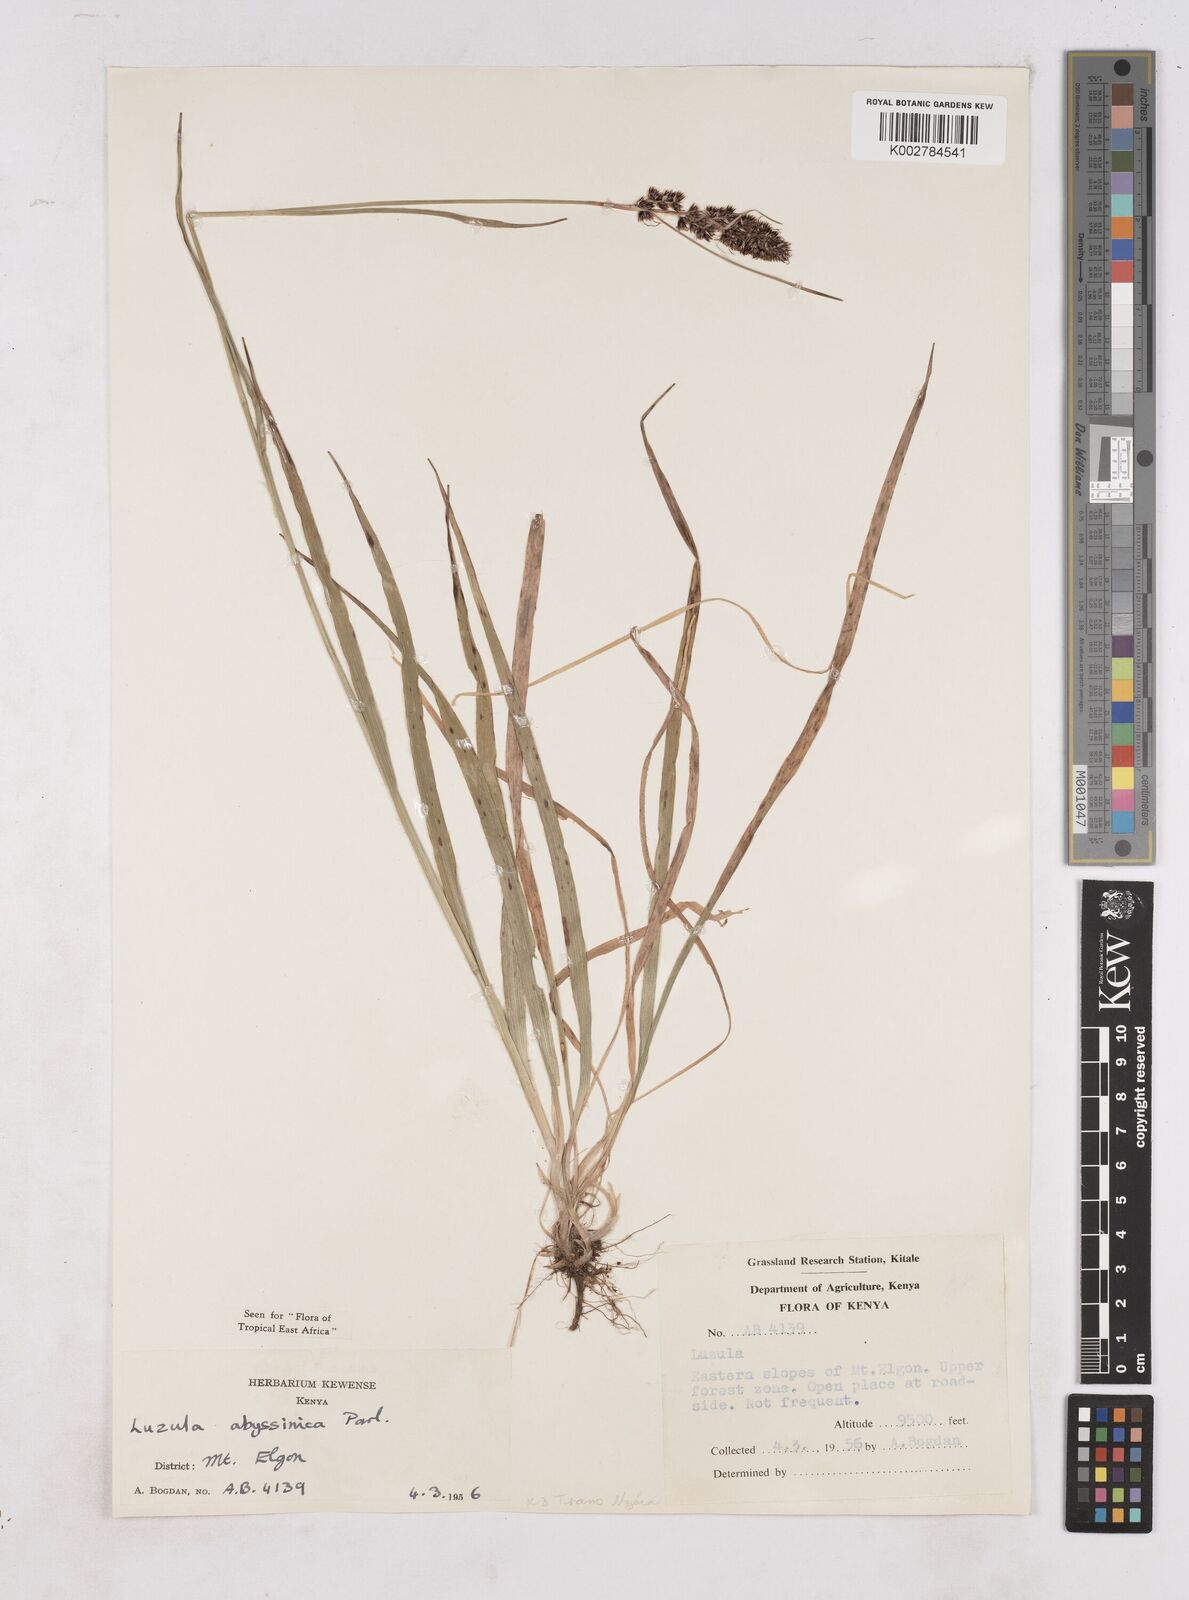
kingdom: Plantae
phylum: Tracheophyta
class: Liliopsida
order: Poales
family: Juncaceae
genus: Luzula
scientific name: Luzula abyssinica
